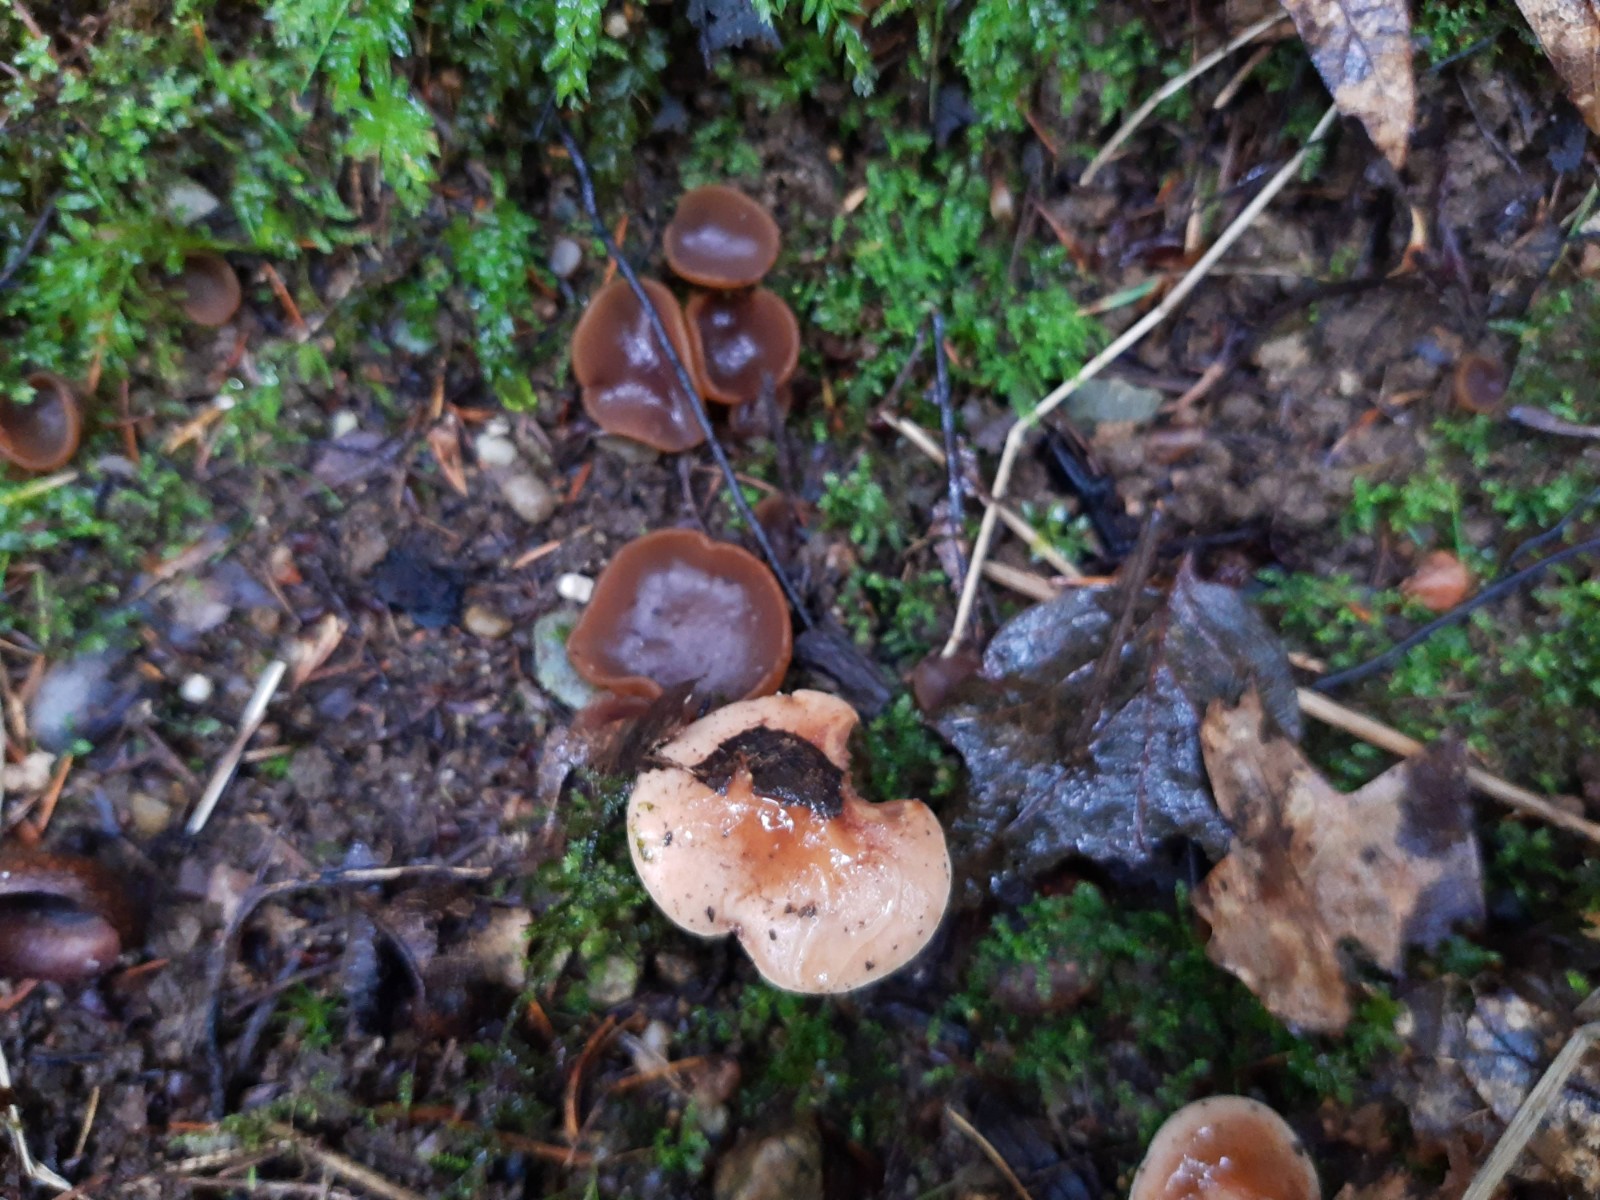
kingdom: Fungi
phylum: Ascomycota
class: Pezizomycetes
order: Pezizales
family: Pezizaceae
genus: Legaliana
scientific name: Legaliana badia
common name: leverbrun bægersvamp
